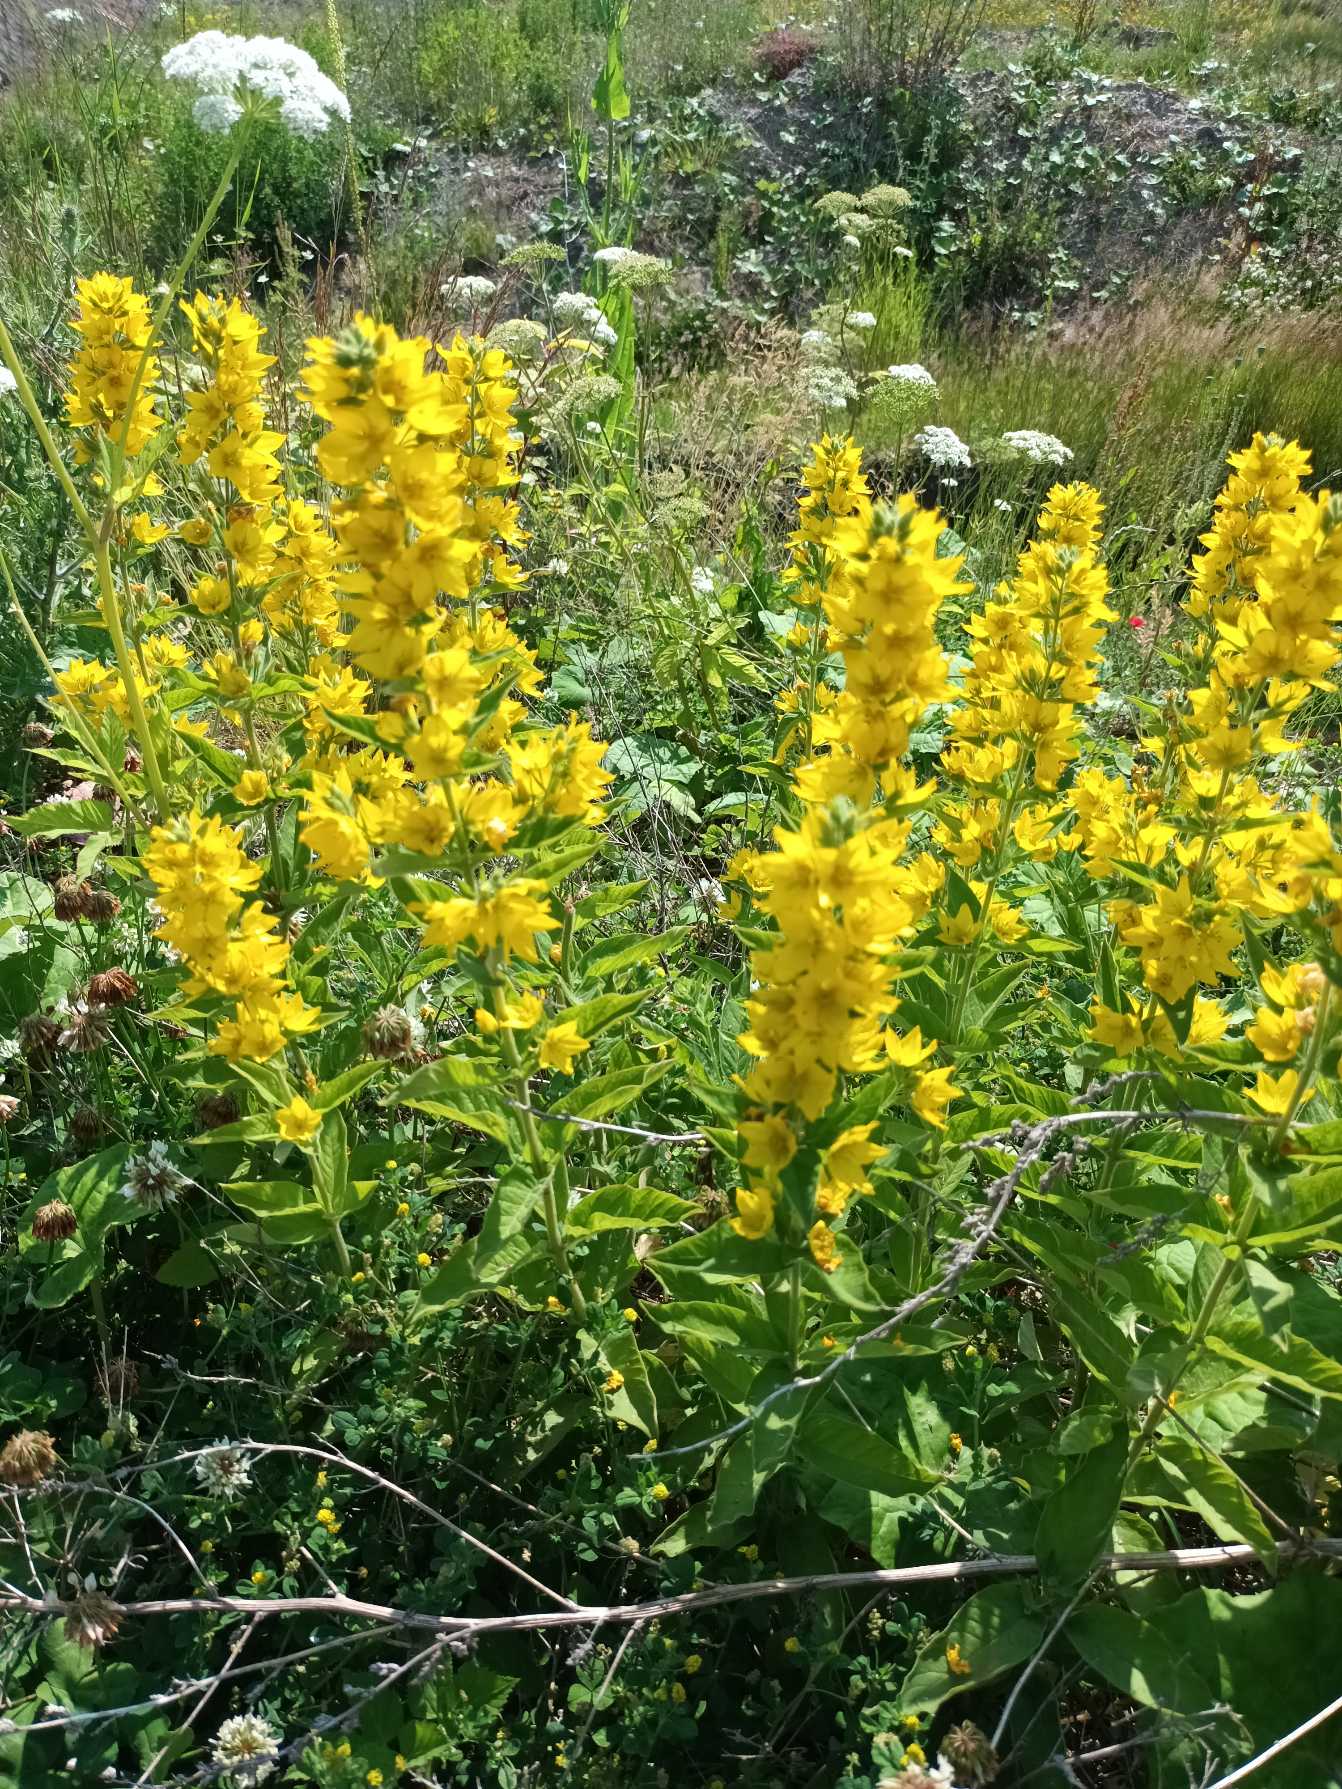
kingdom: Plantae
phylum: Tracheophyta
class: Magnoliopsida
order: Ericales
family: Primulaceae
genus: Lysimachia
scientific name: Lysimachia punctata
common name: Prikbladet fredløs
